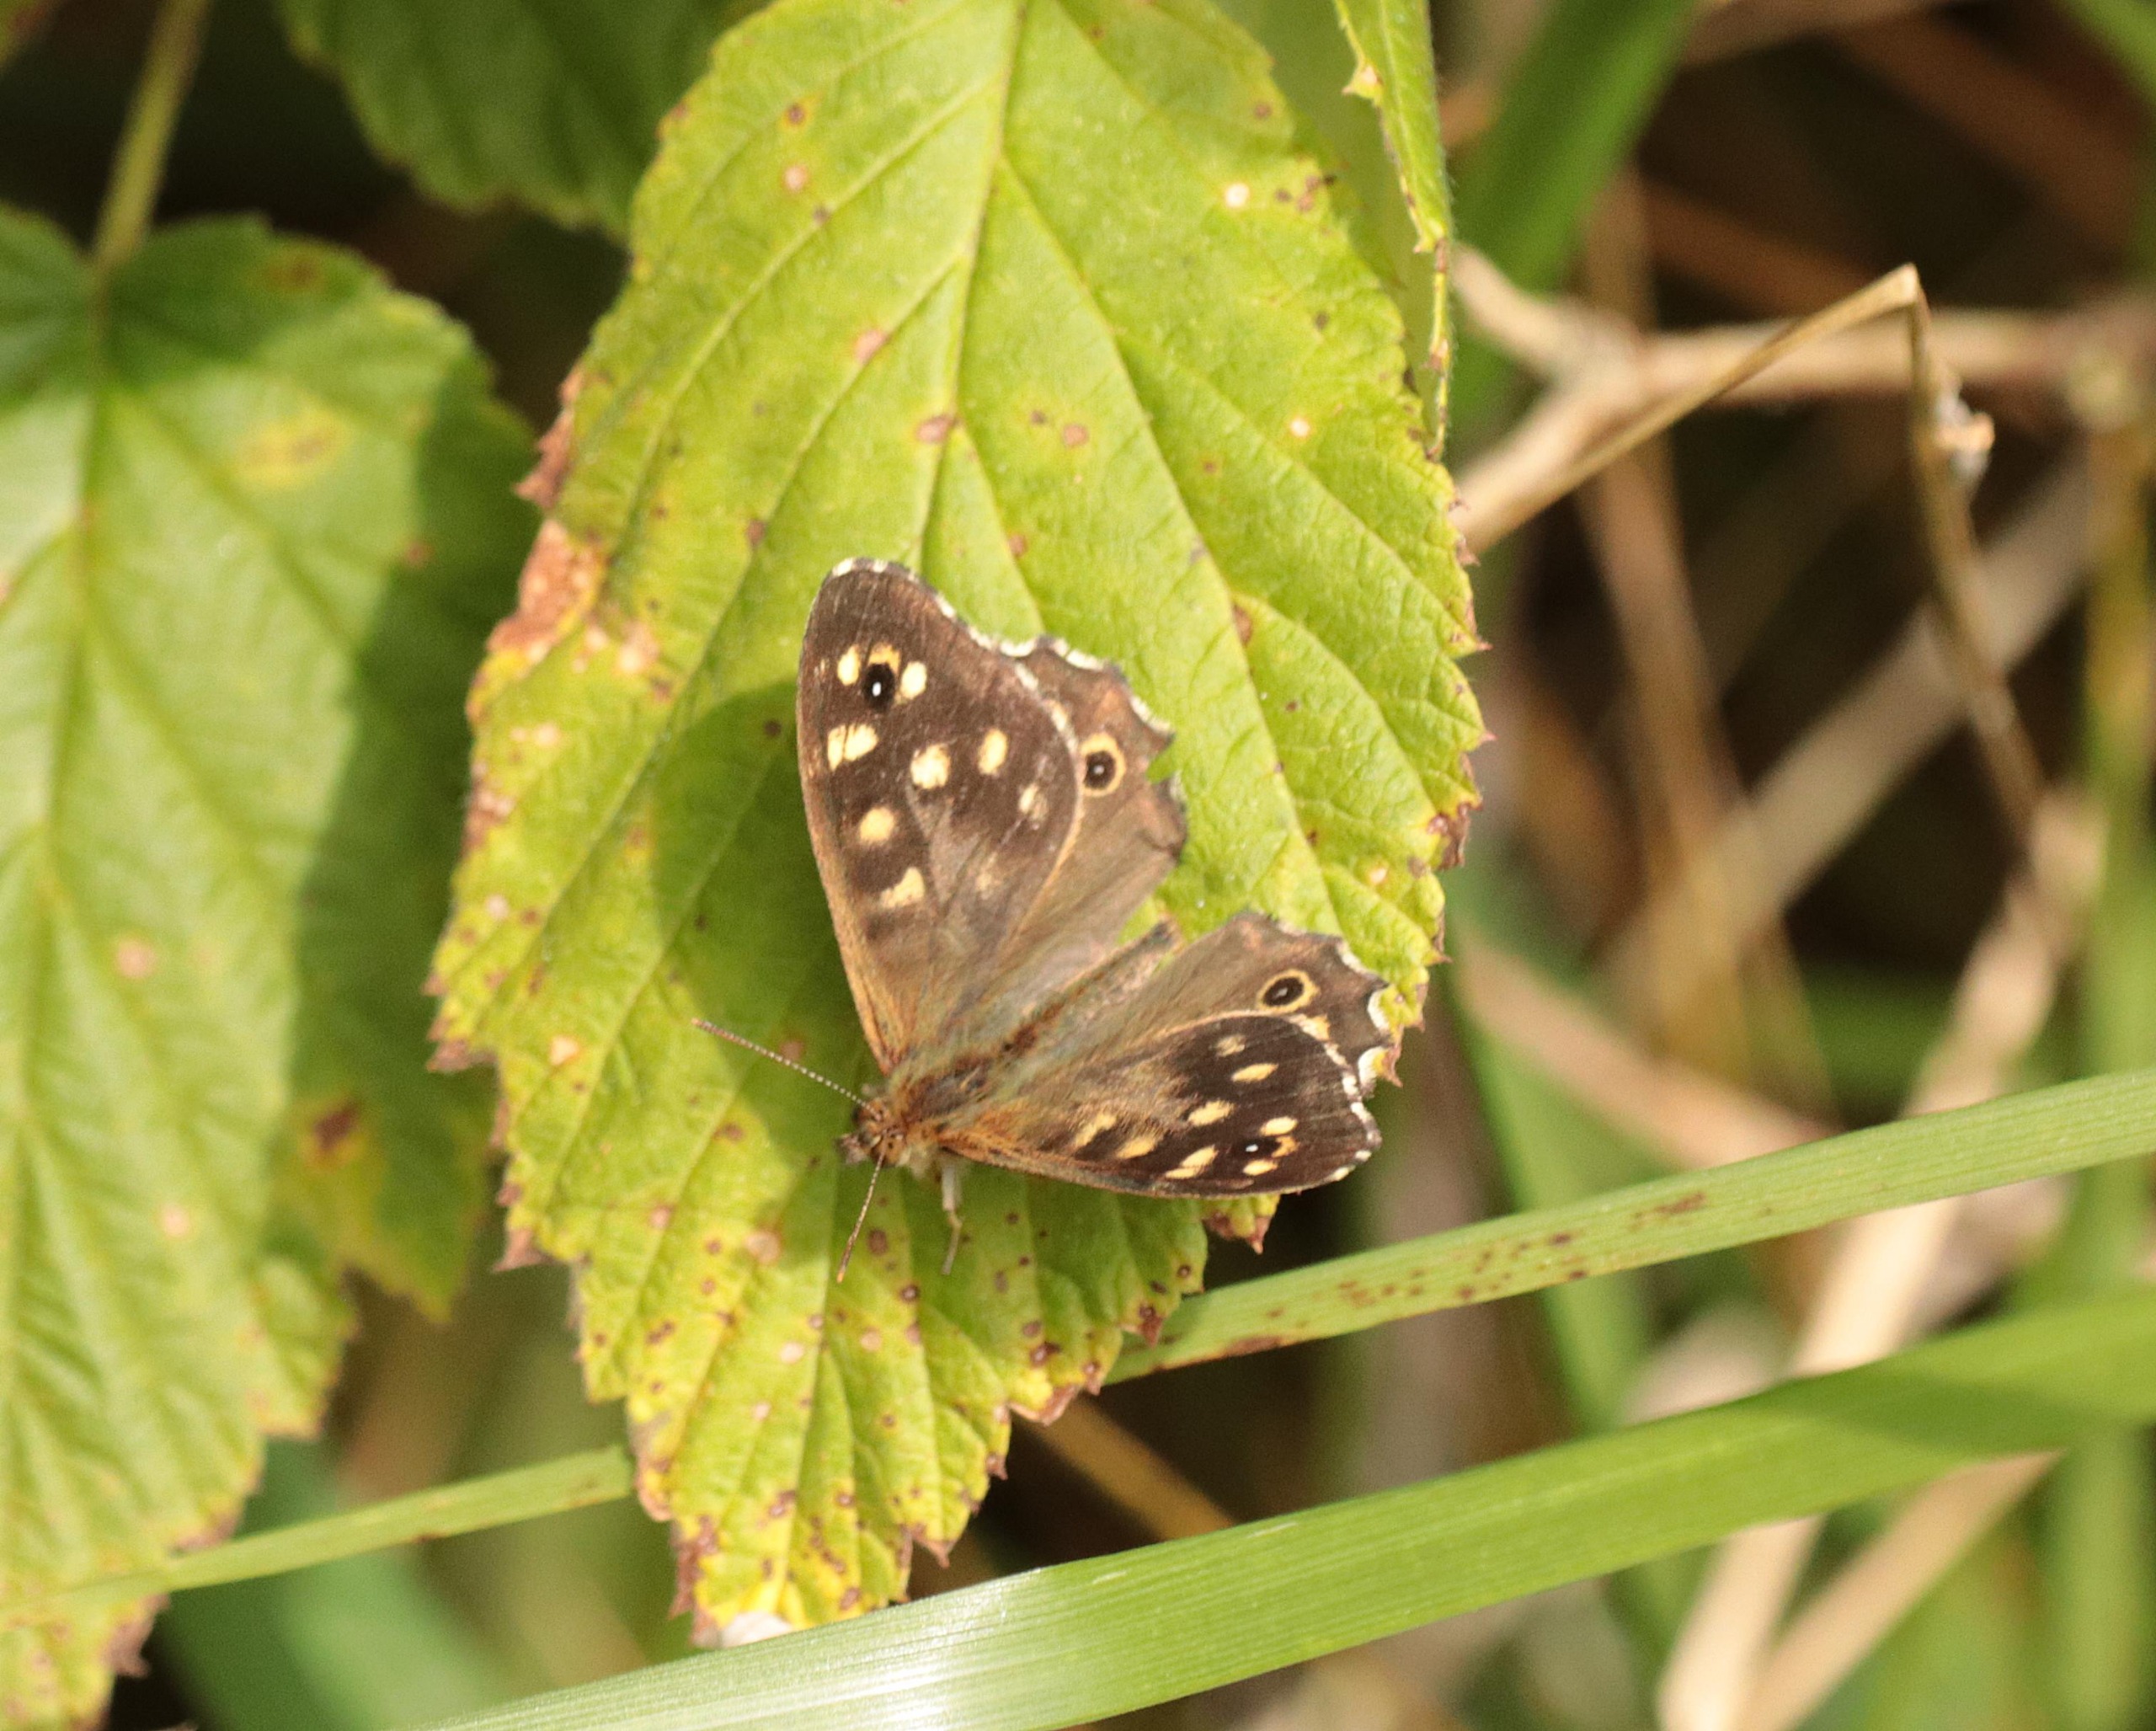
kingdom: Animalia
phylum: Arthropoda
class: Insecta
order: Lepidoptera
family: Nymphalidae
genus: Pararge
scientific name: Pararge aegeria
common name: Skovrandøje
